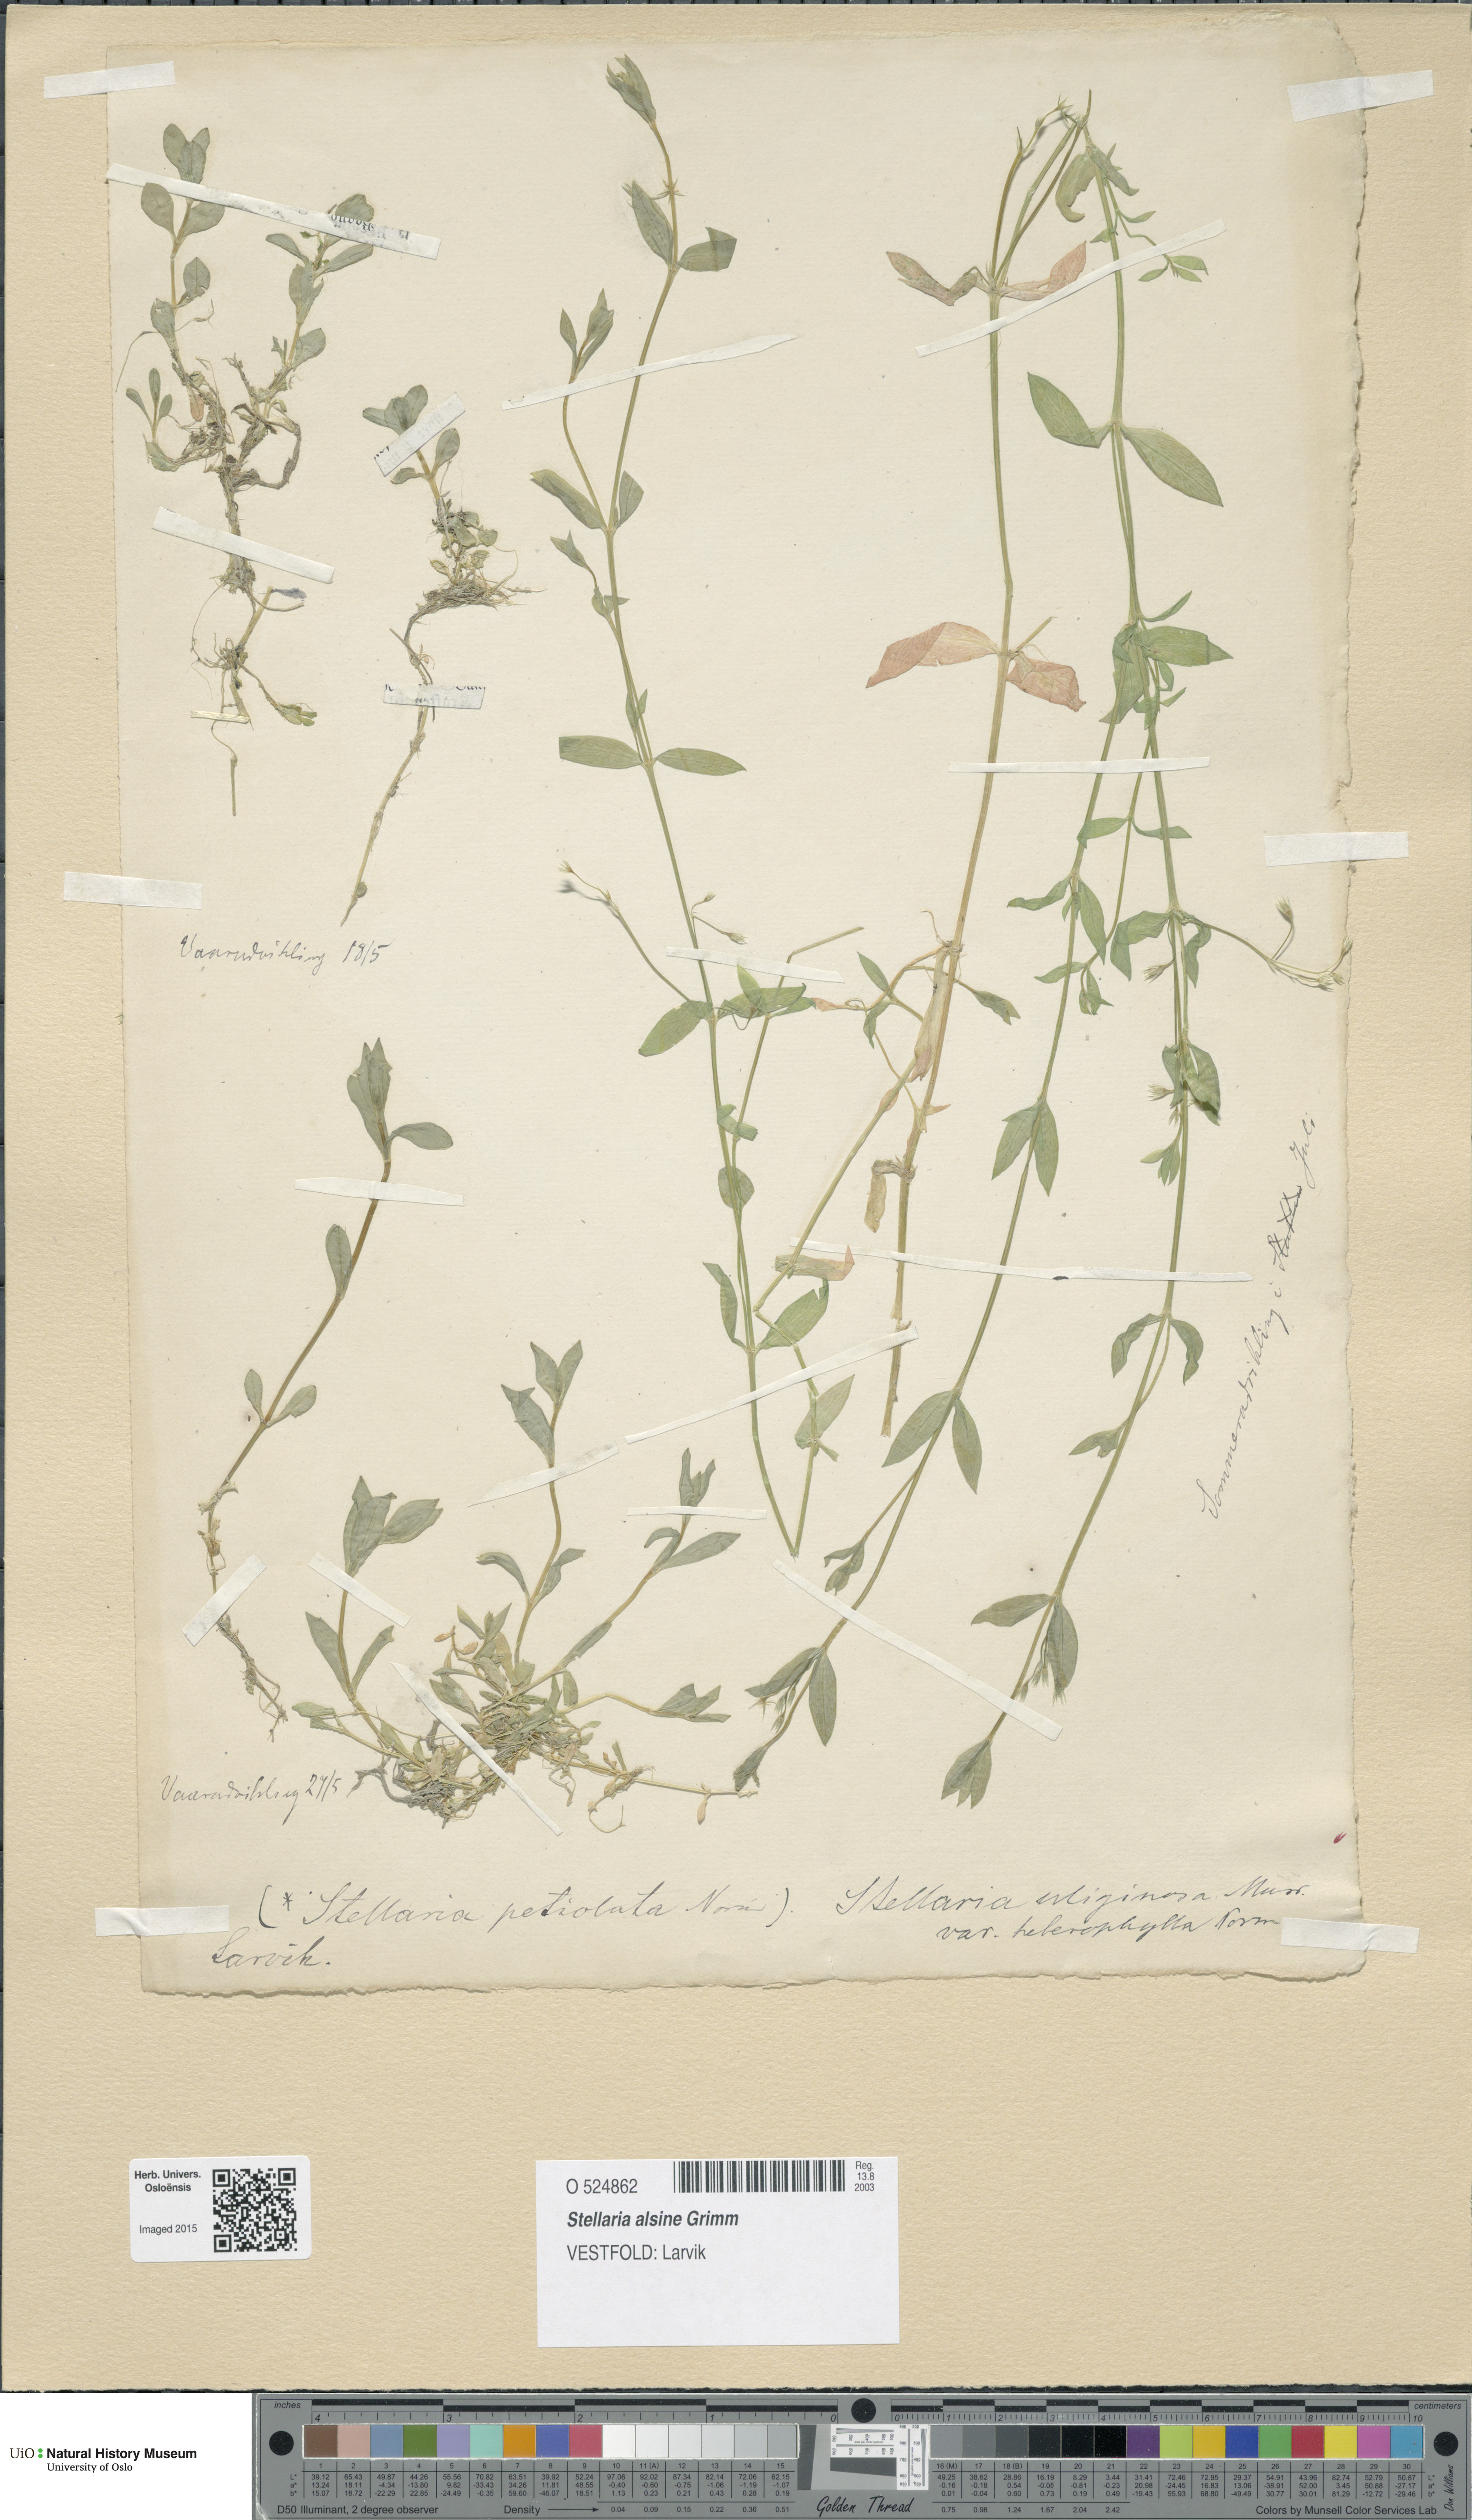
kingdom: Plantae
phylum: Tracheophyta
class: Magnoliopsida
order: Caryophyllales
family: Caryophyllaceae
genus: Stellaria
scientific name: Stellaria alsine
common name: Bog stitchwort
